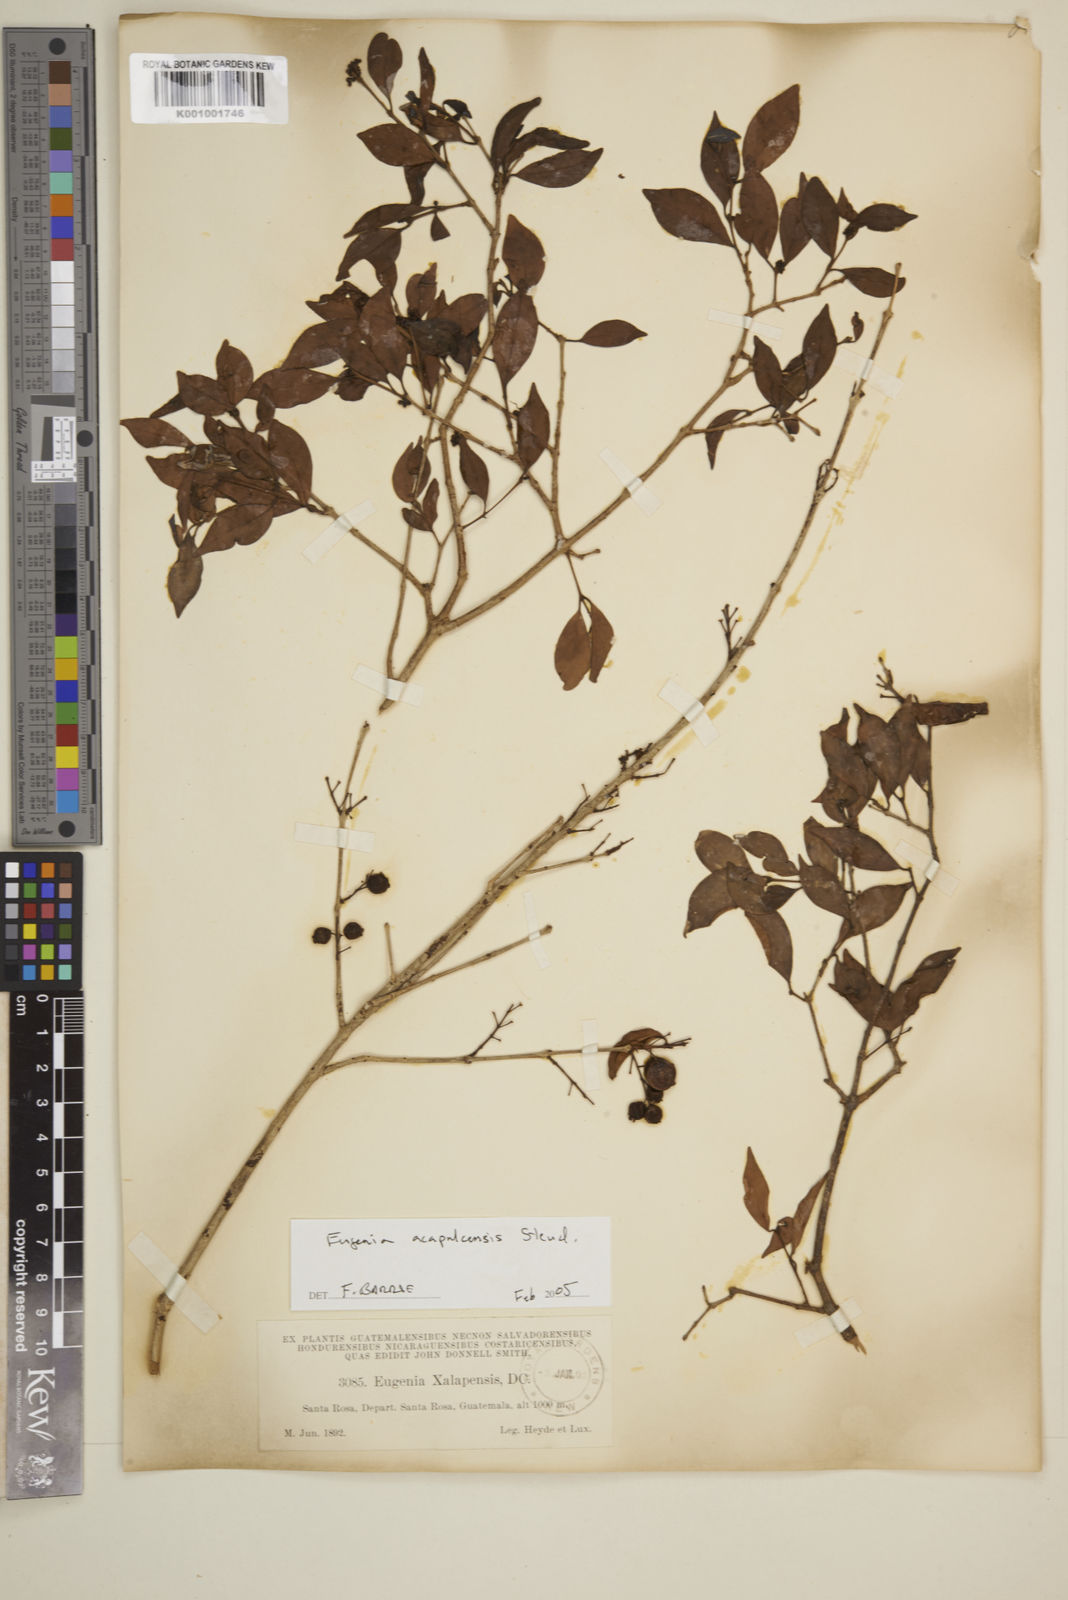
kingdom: Plantae
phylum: Tracheophyta
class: Magnoliopsida
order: Myrtales
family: Myrtaceae
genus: Eugenia
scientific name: Eugenia acapulcensis
